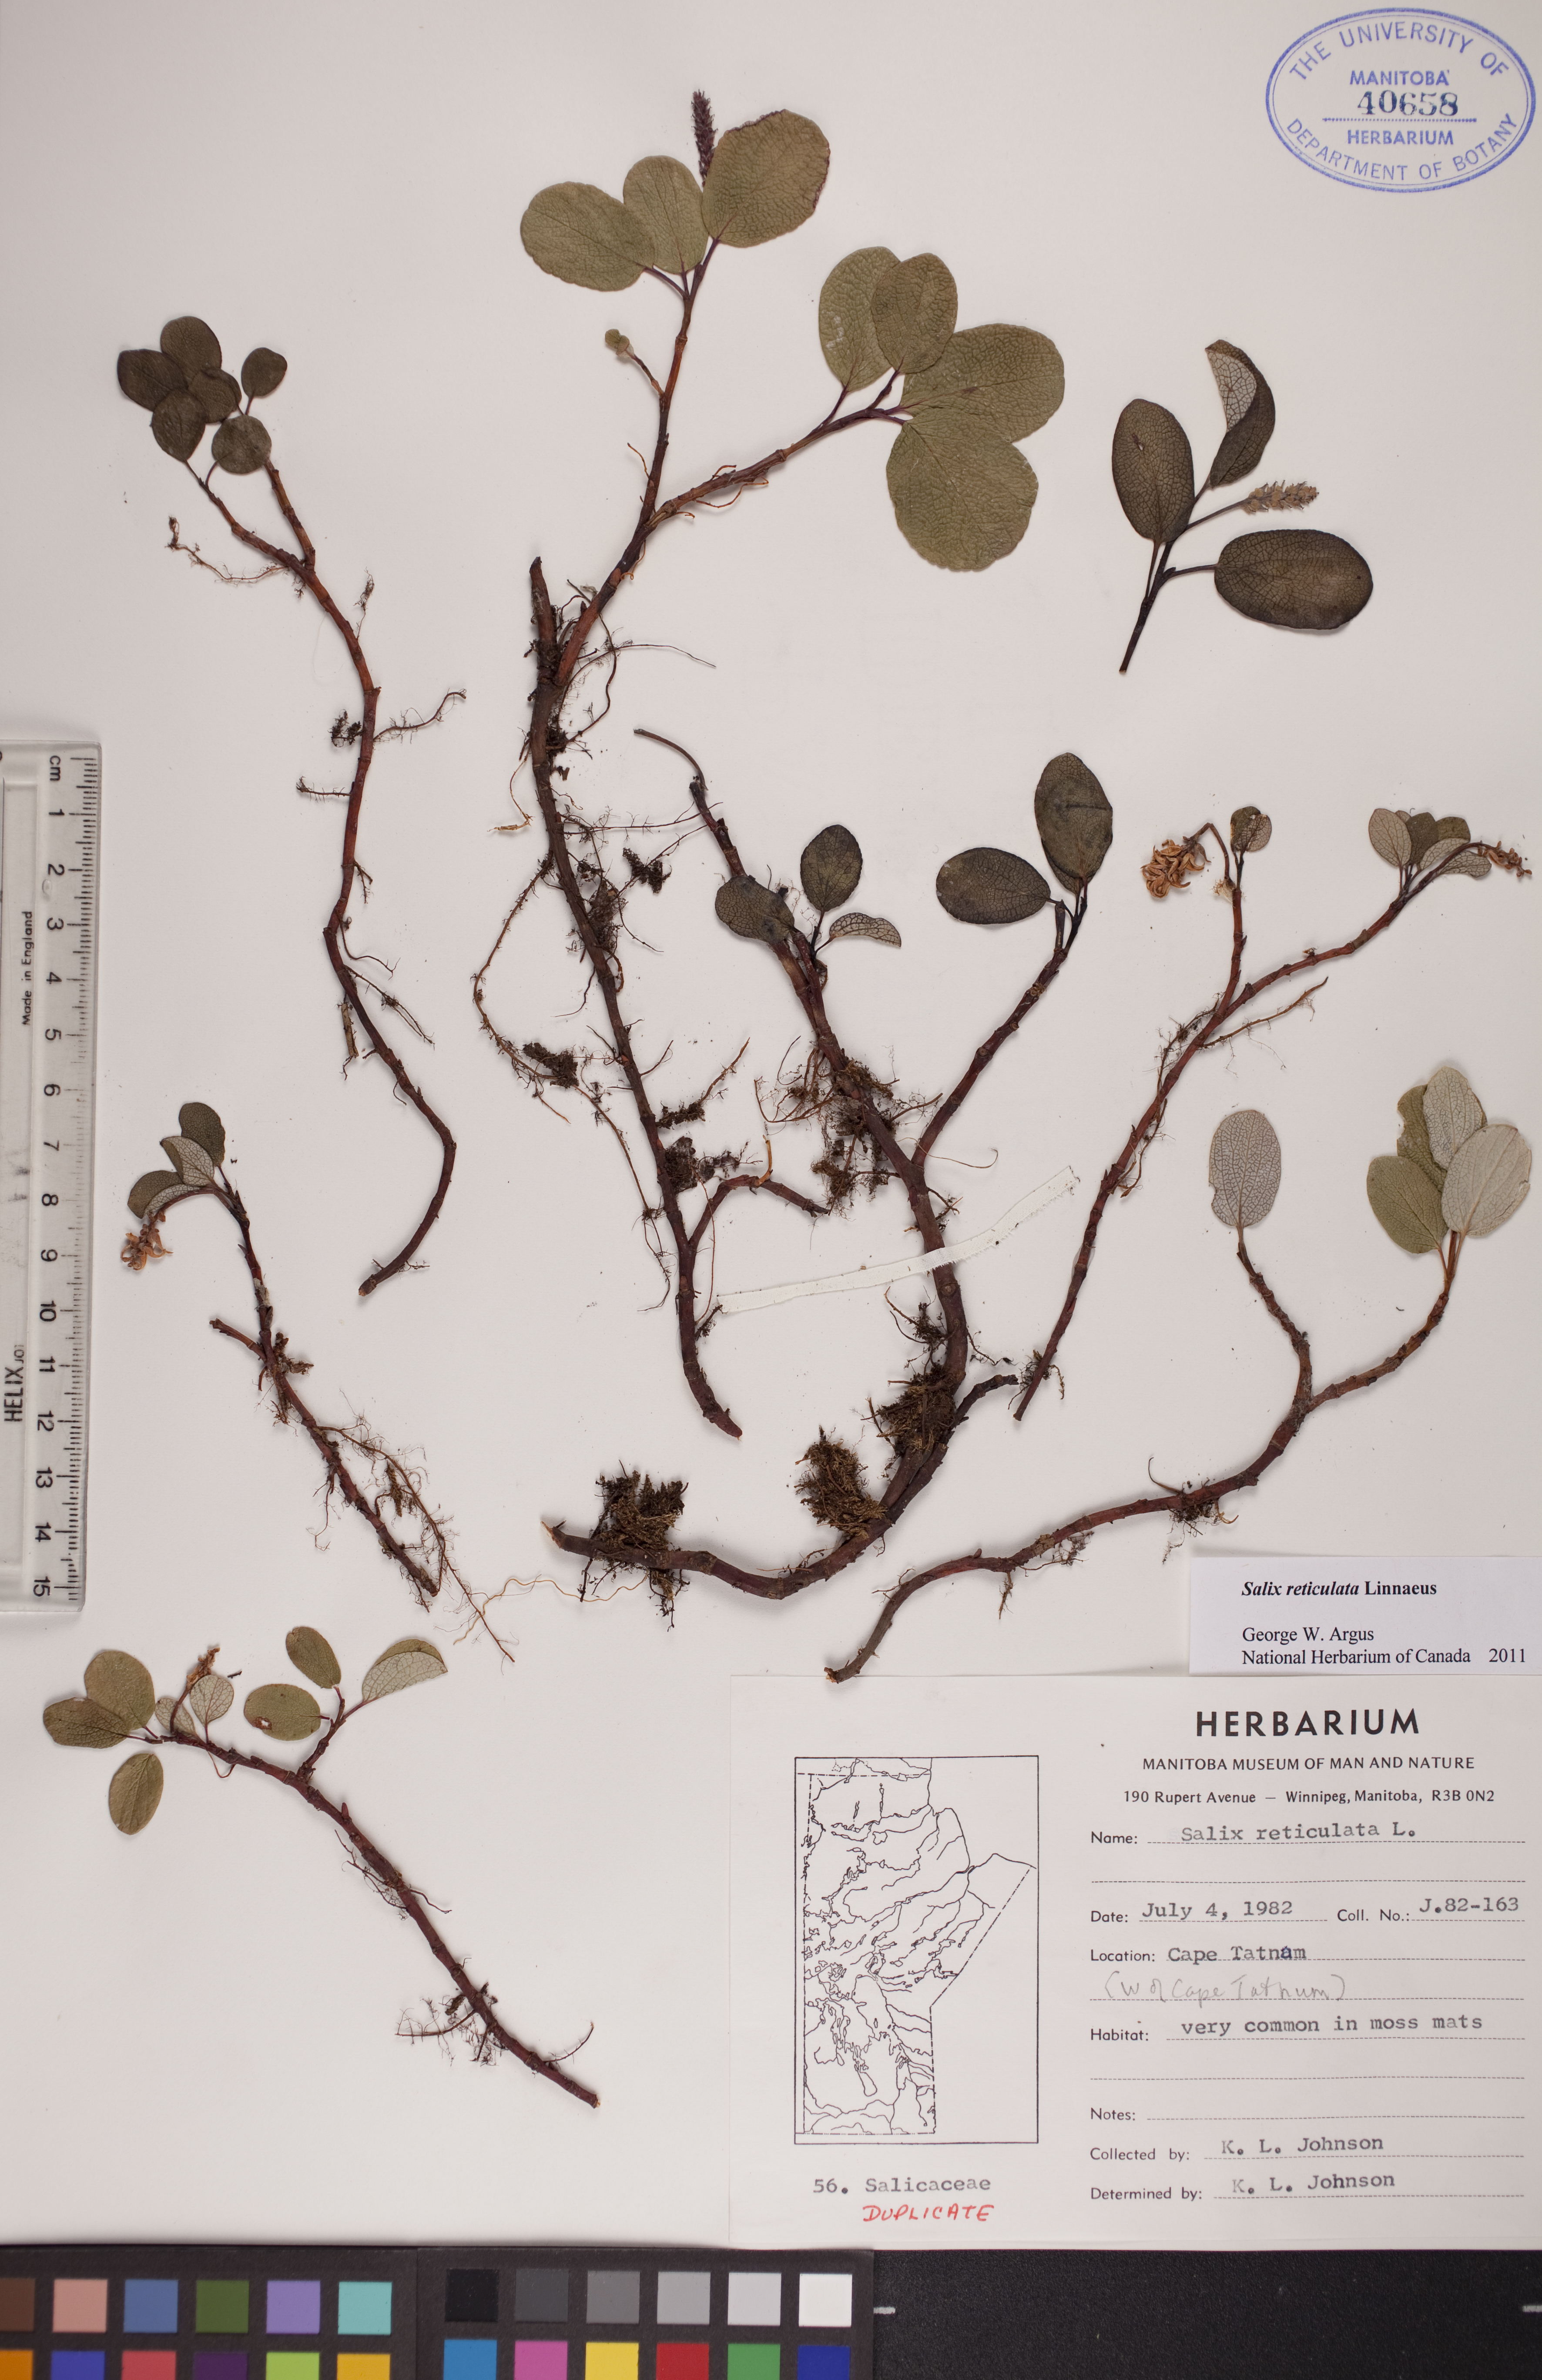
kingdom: Plantae
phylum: Tracheophyta
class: Magnoliopsida
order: Malpighiales
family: Salicaceae
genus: Salix
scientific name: Salix reticulata
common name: Net-leaved willow
